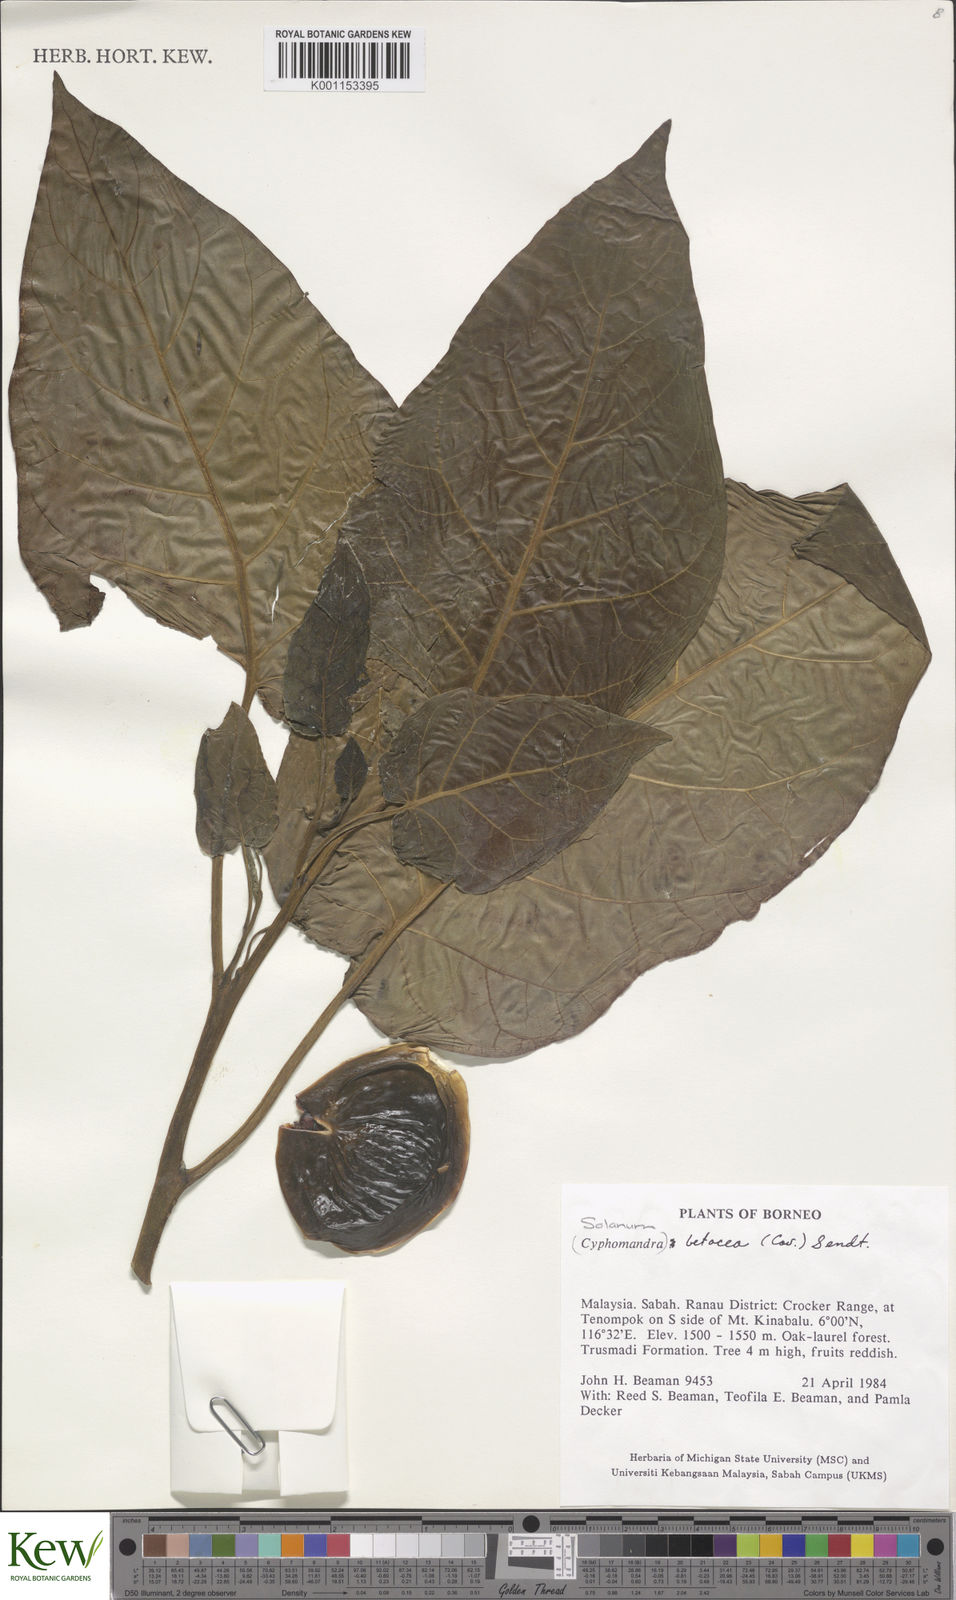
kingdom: Plantae
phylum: Tracheophyta
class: Magnoliopsida
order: Solanales
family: Solanaceae
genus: Solanum
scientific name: Solanum betaceum
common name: Tamarillo
